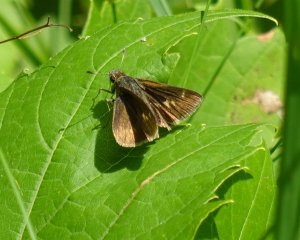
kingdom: Animalia
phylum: Arthropoda
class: Insecta
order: Lepidoptera
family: Hesperiidae
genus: Polites
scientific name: Polites themistocles
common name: Tawny-edged Skipper
